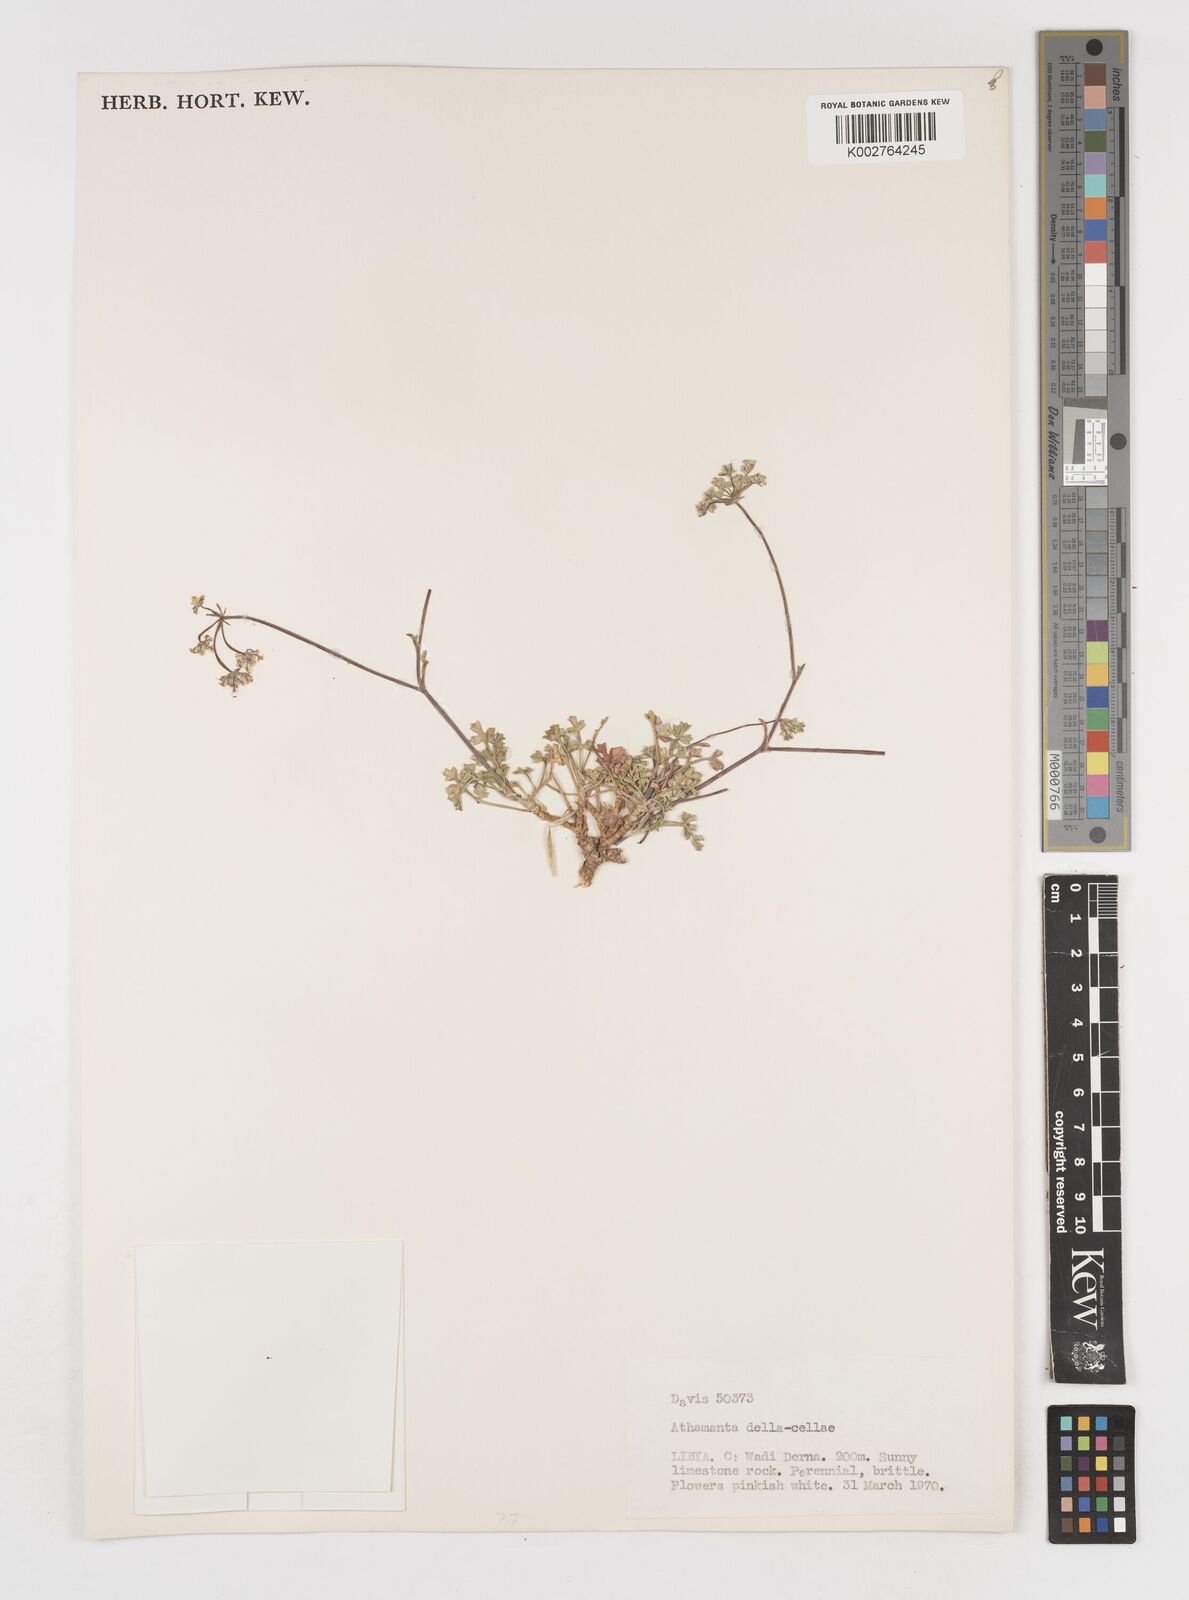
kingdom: Plantae
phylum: Tracheophyta
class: Magnoliopsida
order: Apiales
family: Apiaceae
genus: Daucus
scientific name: Daucus della-cellae
